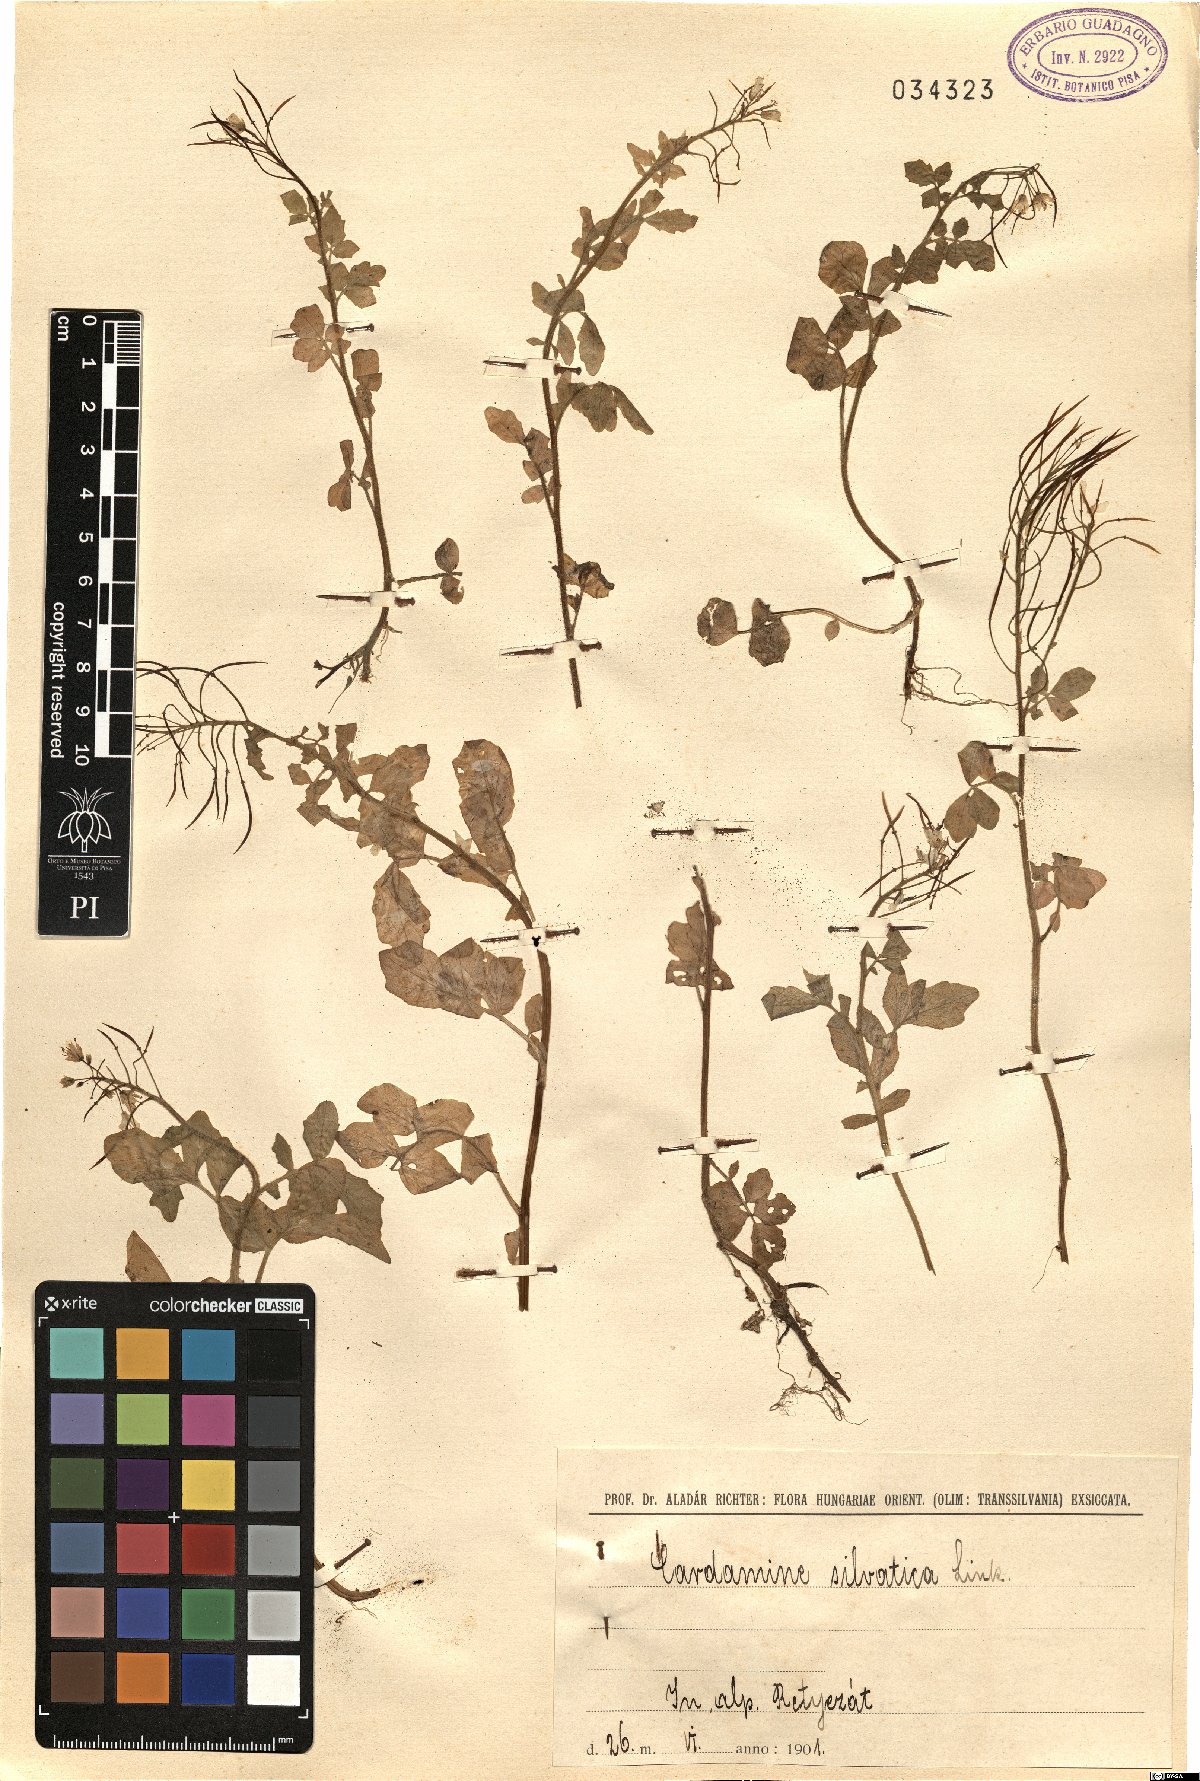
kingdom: Plantae
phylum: Tracheophyta
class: Magnoliopsida
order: Brassicales
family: Brassicaceae
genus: Cardamine
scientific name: Cardamine flexuosa
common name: Woodland bittercress
